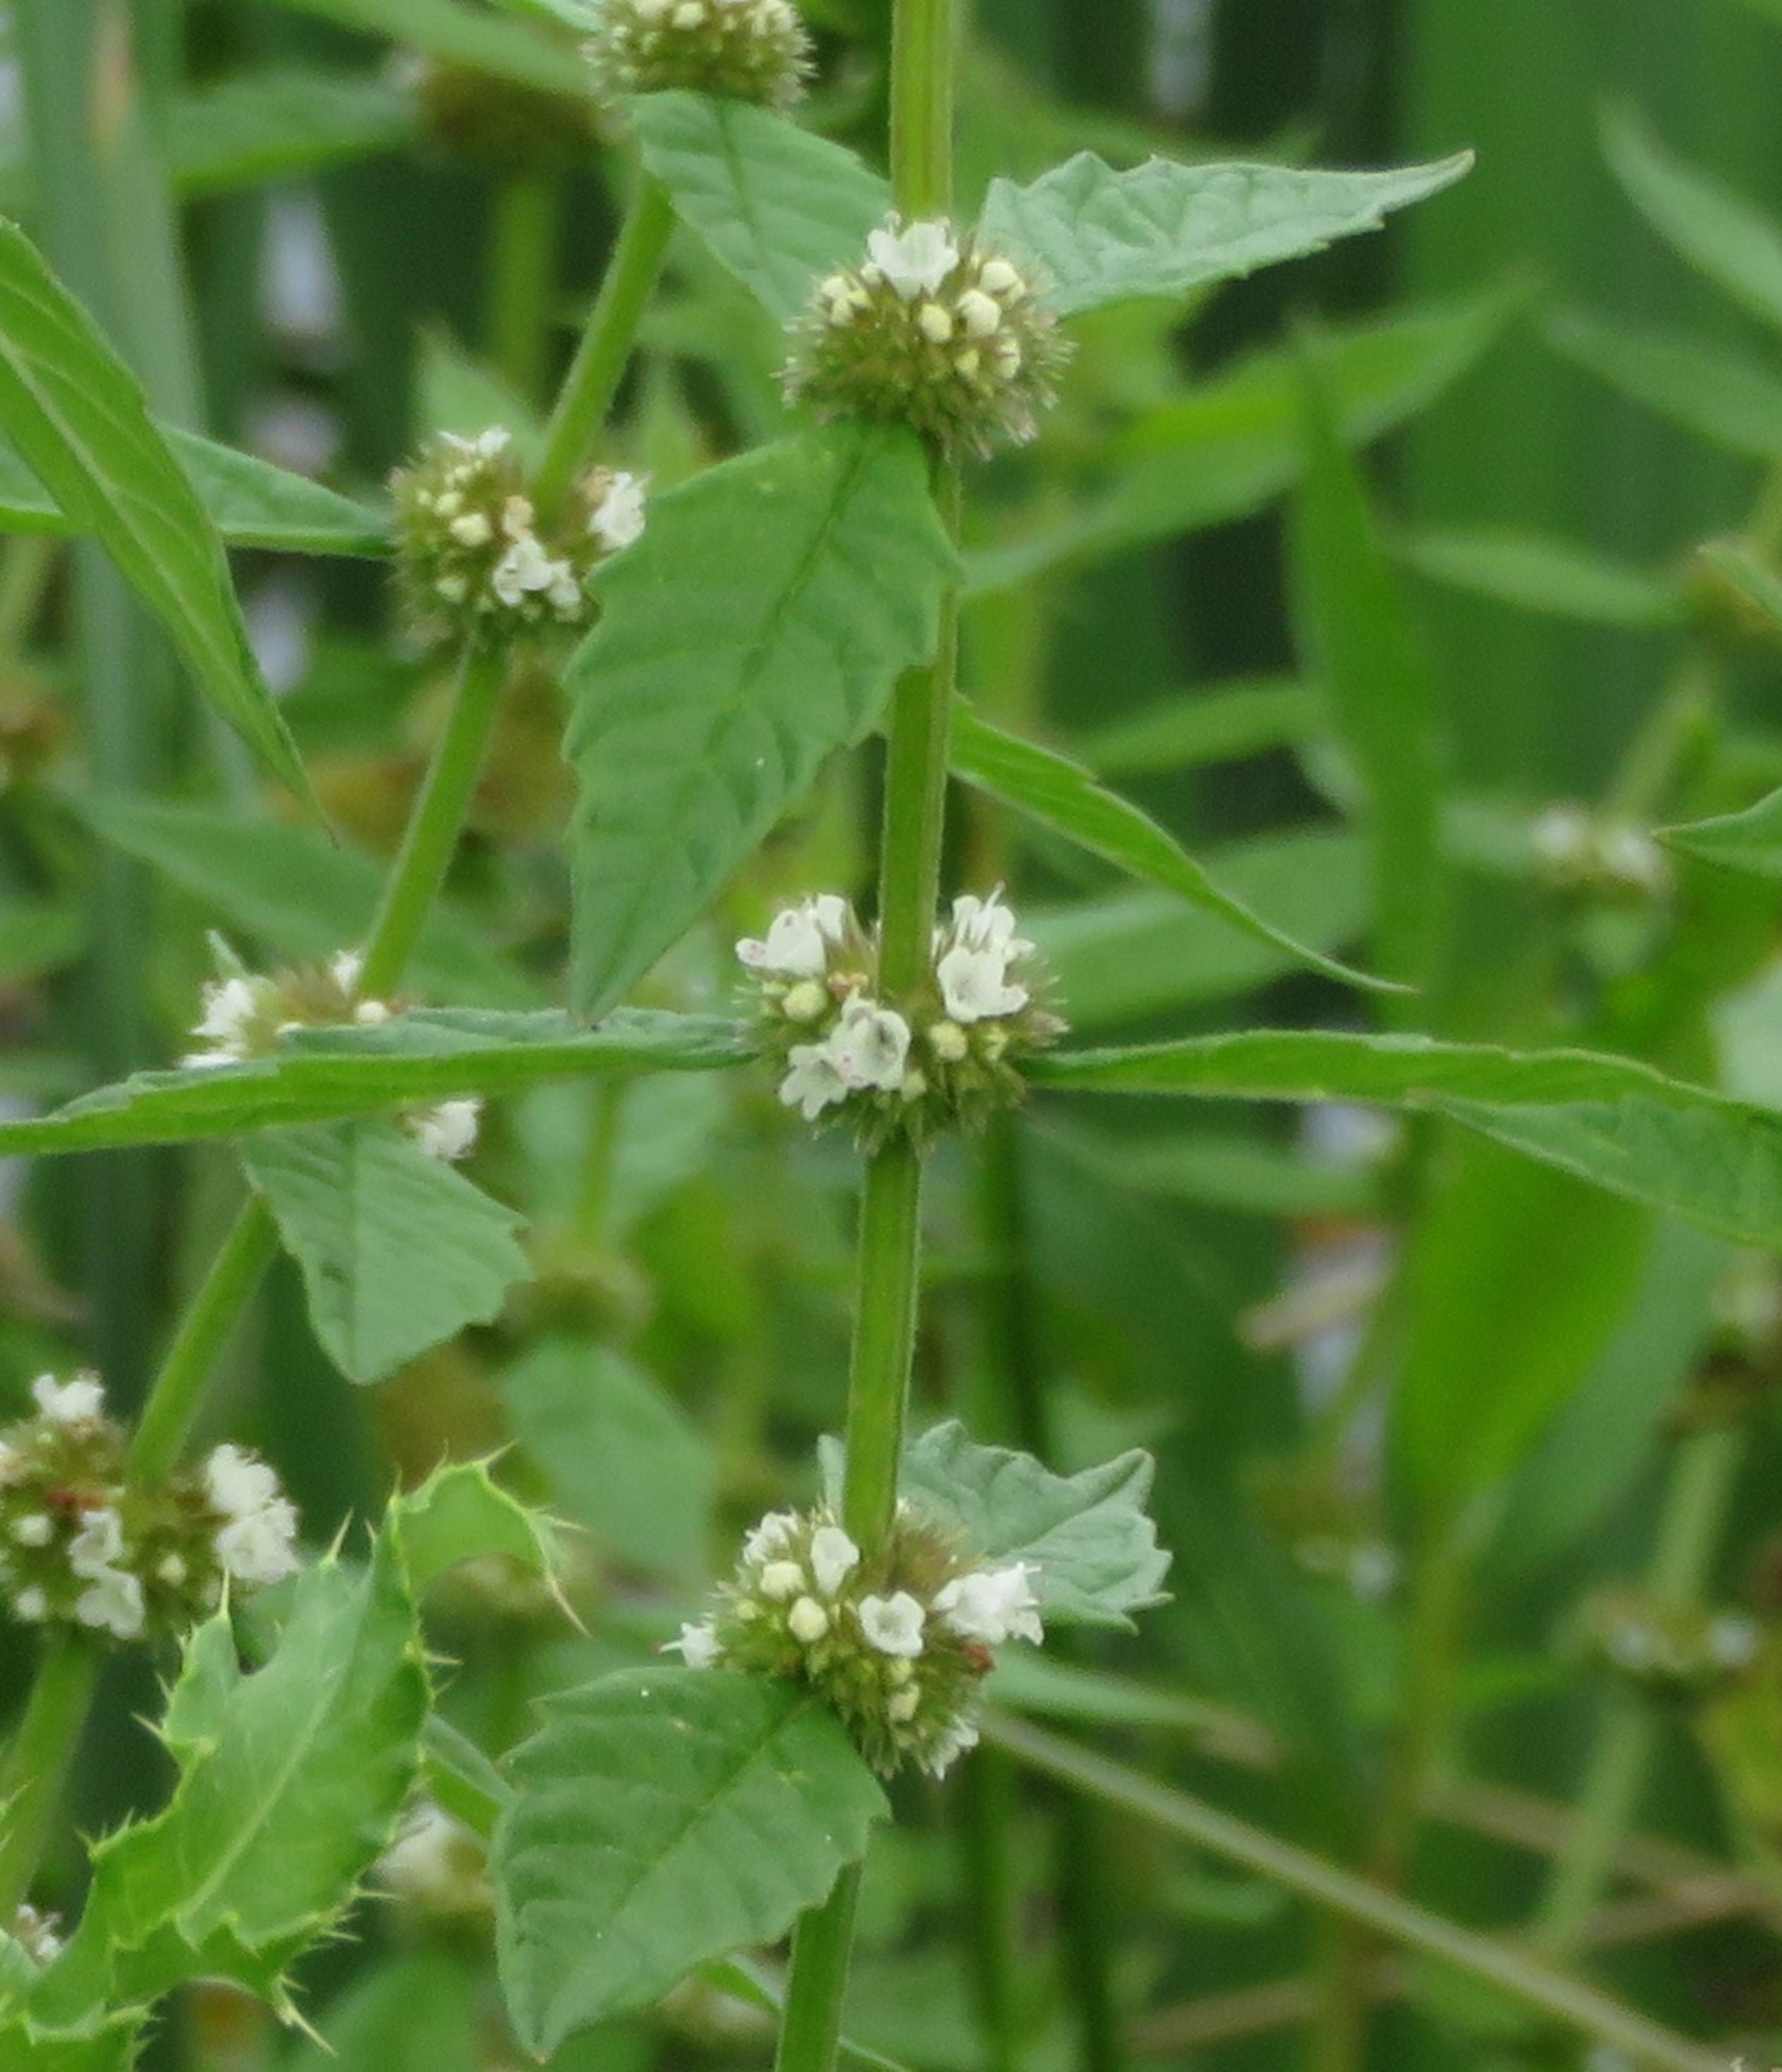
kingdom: Plantae
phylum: Tracheophyta
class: Magnoliopsida
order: Lamiales
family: Lamiaceae
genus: Lycopus
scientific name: Lycopus europaeus
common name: Sværtevæld
